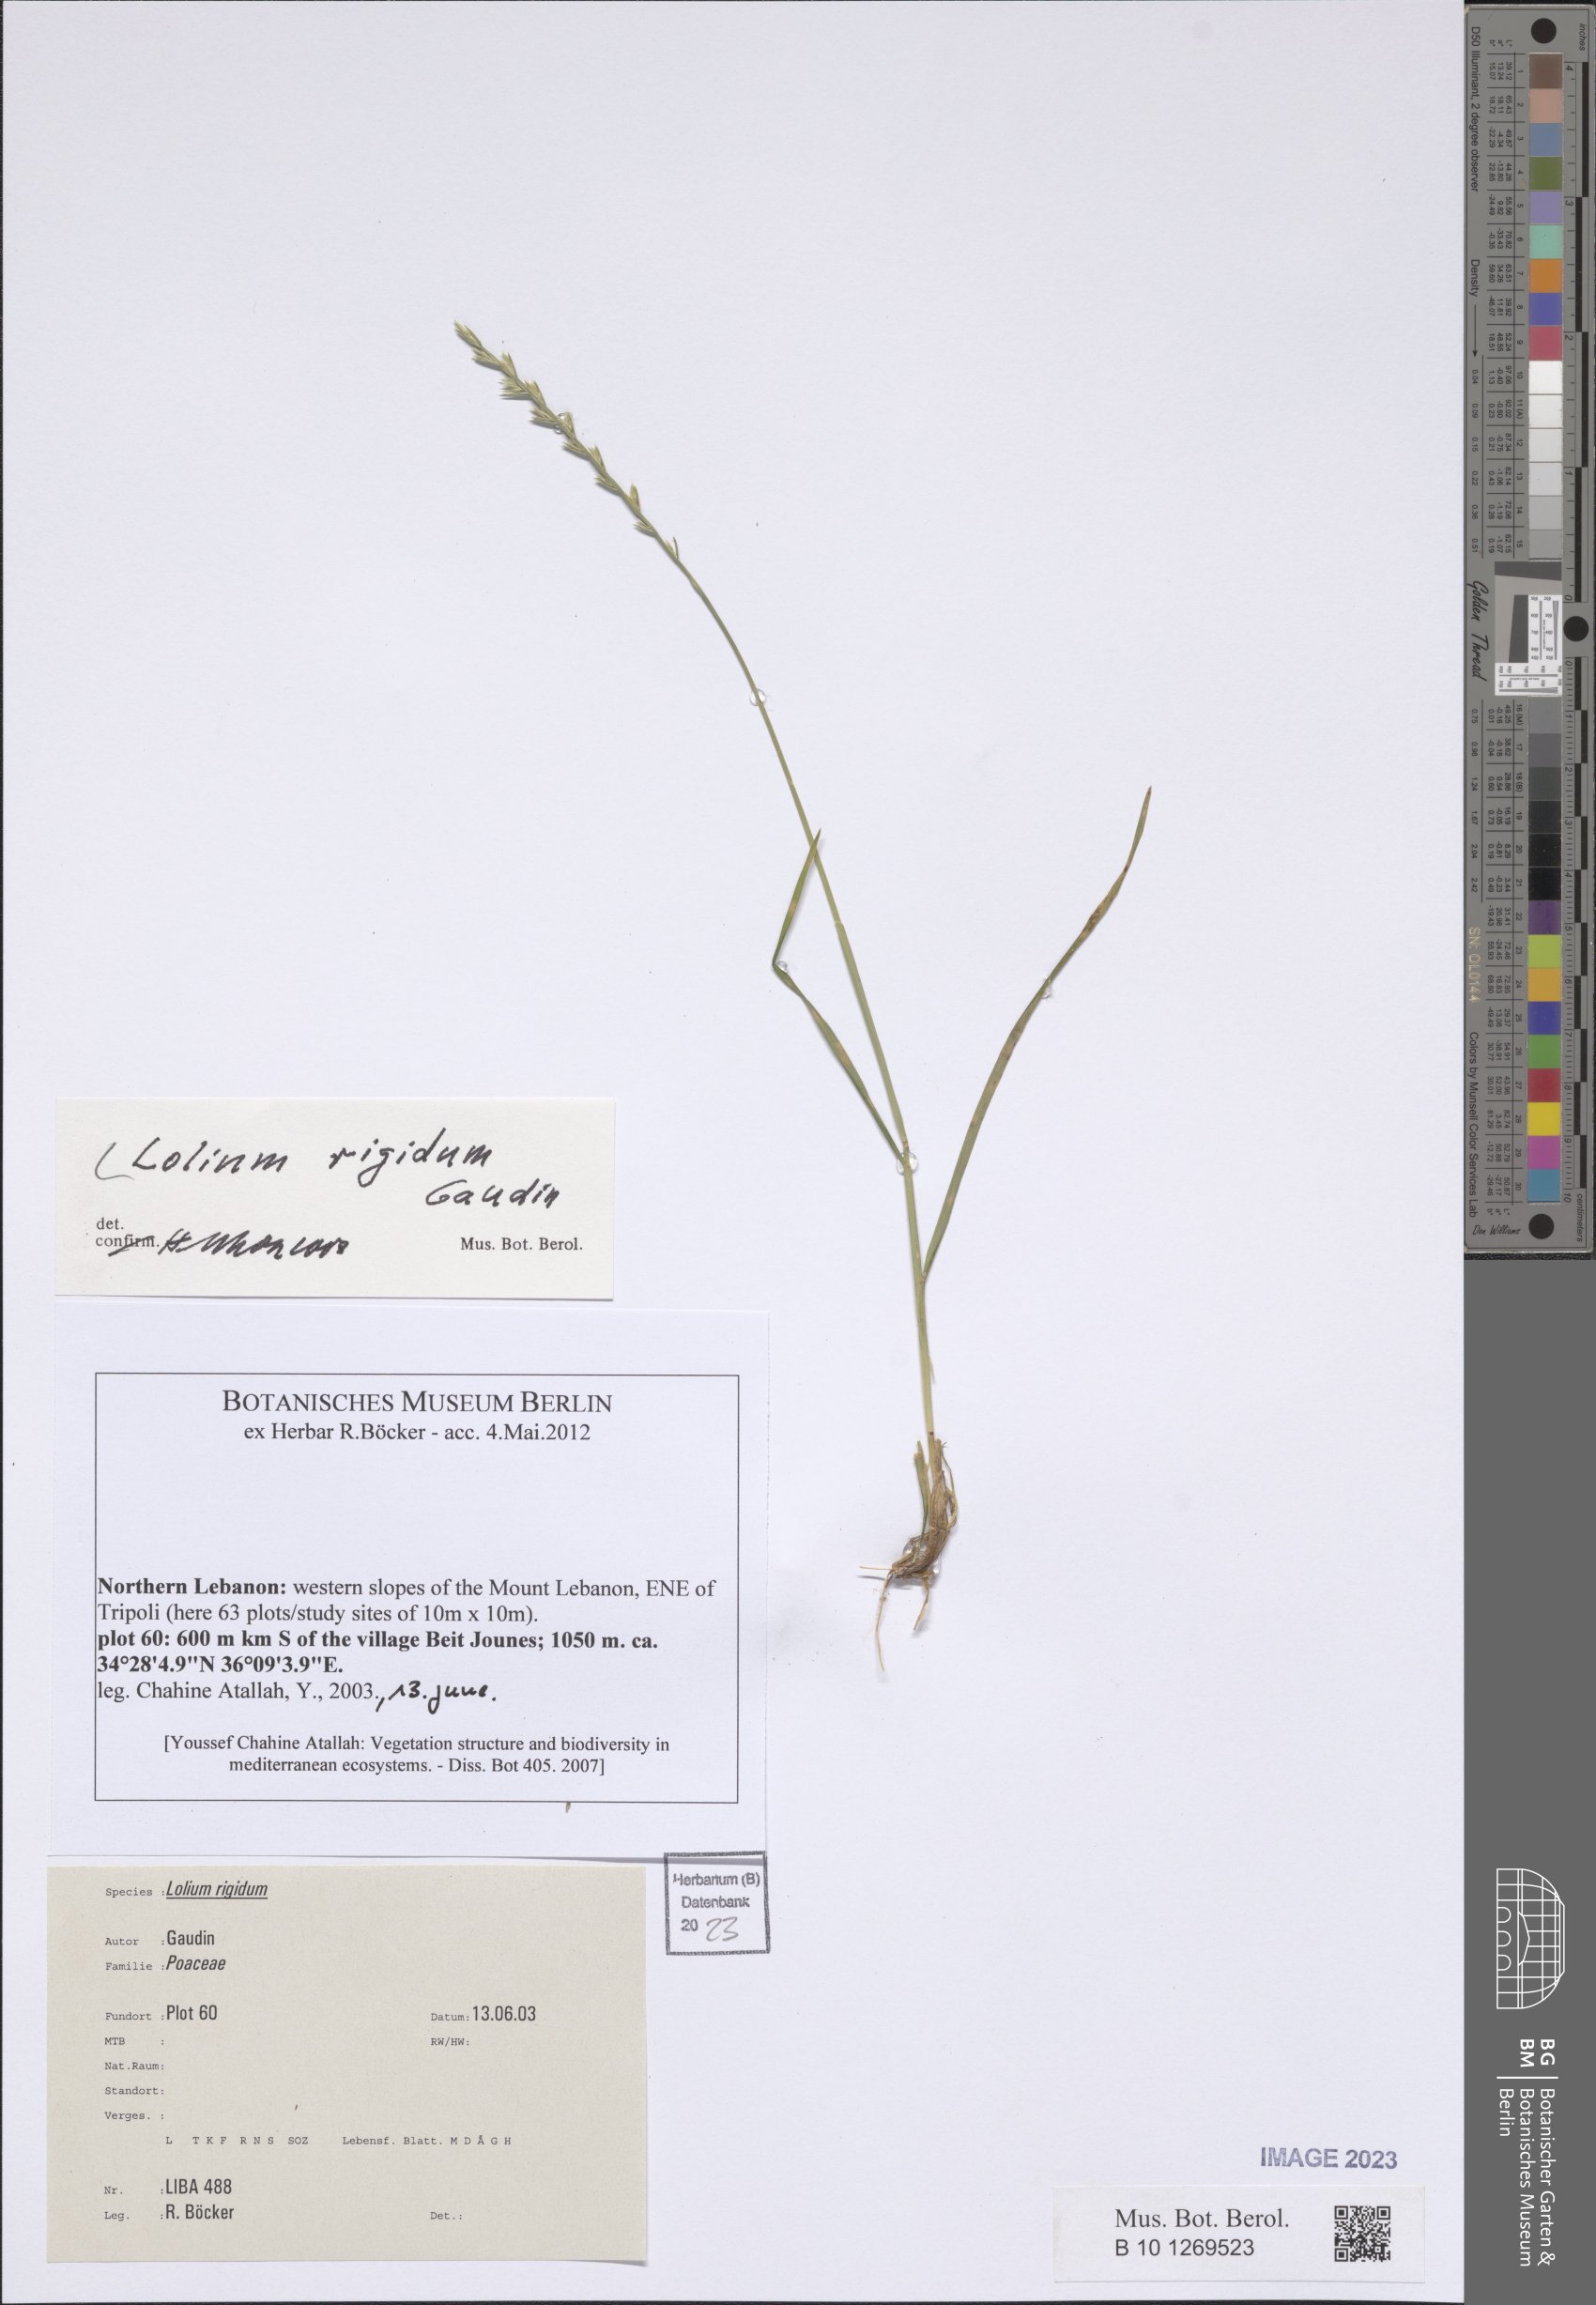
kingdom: Plantae
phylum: Tracheophyta
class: Liliopsida
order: Poales
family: Poaceae
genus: Lolium
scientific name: Lolium rigidum
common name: Wimmera ryegrass
